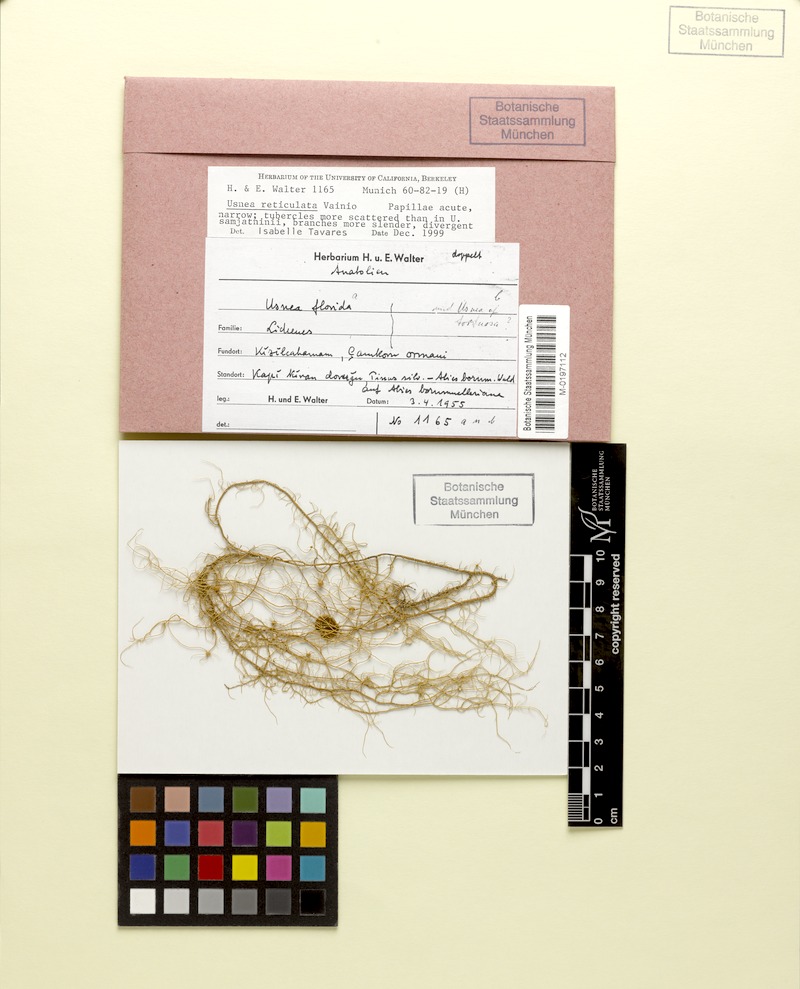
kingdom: Fungi
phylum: Ascomycota
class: Lecanoromycetes
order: Lecanorales
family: Parmeliaceae
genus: Usnea
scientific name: Usnea
